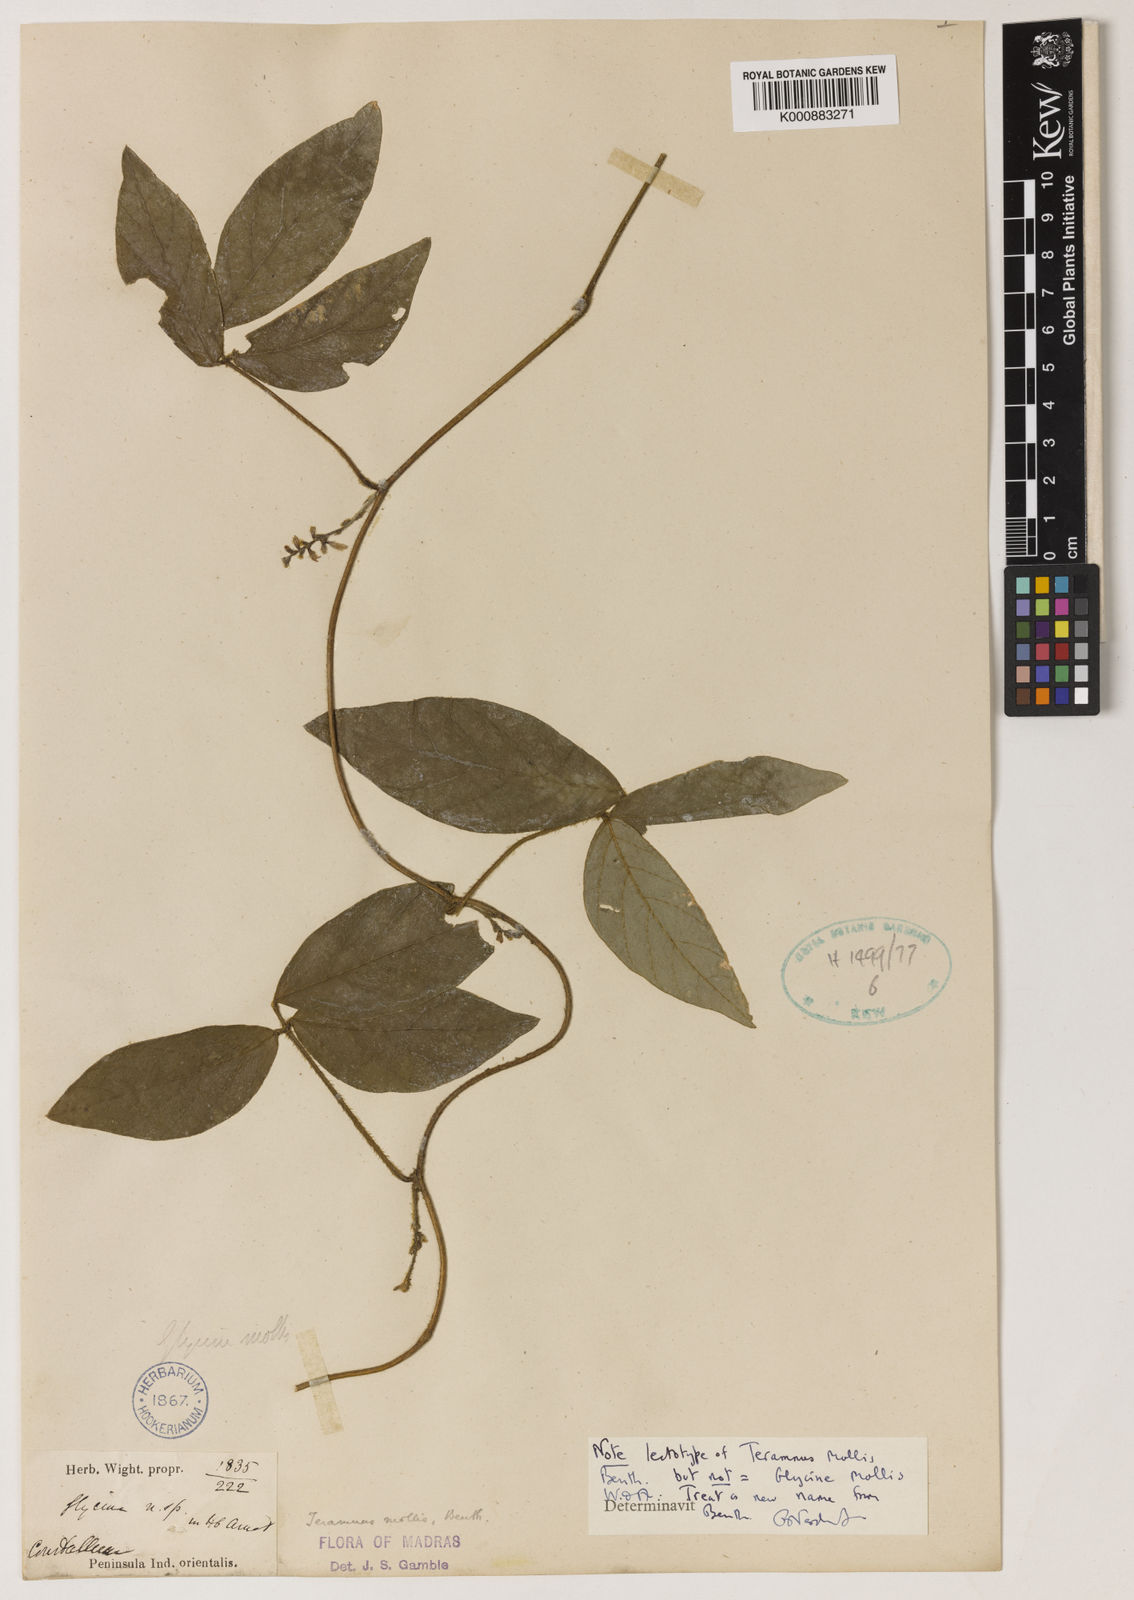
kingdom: Plantae
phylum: Tracheophyta
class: Magnoliopsida
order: Fabales
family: Fabaceae
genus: Teramnus
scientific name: Teramnus mollis
